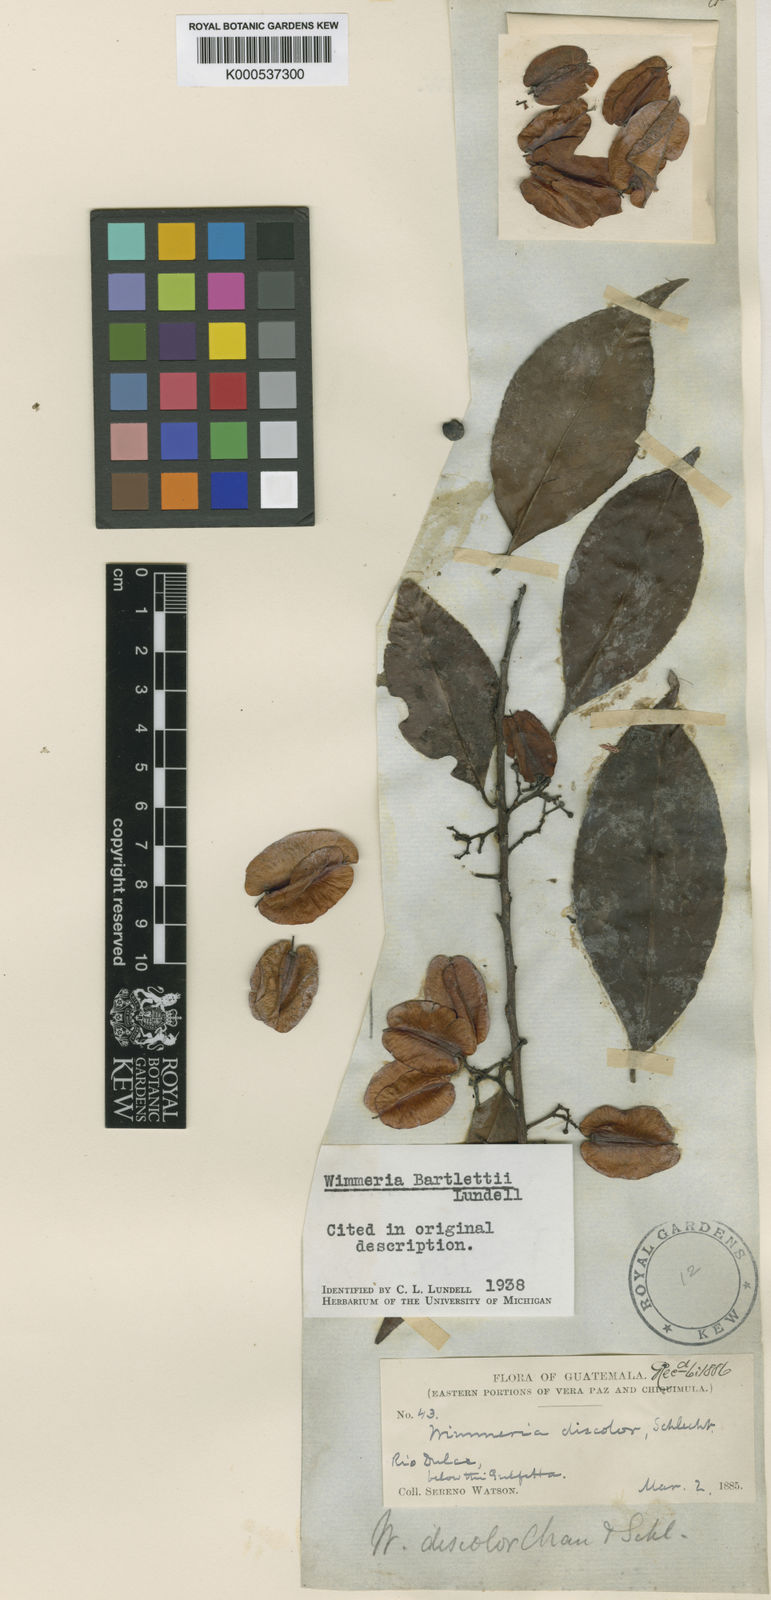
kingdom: Plantae
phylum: Tracheophyta
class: Magnoliopsida
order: Celastrales
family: Celastraceae
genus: Wimmeria
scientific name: Wimmeria bartlettii
